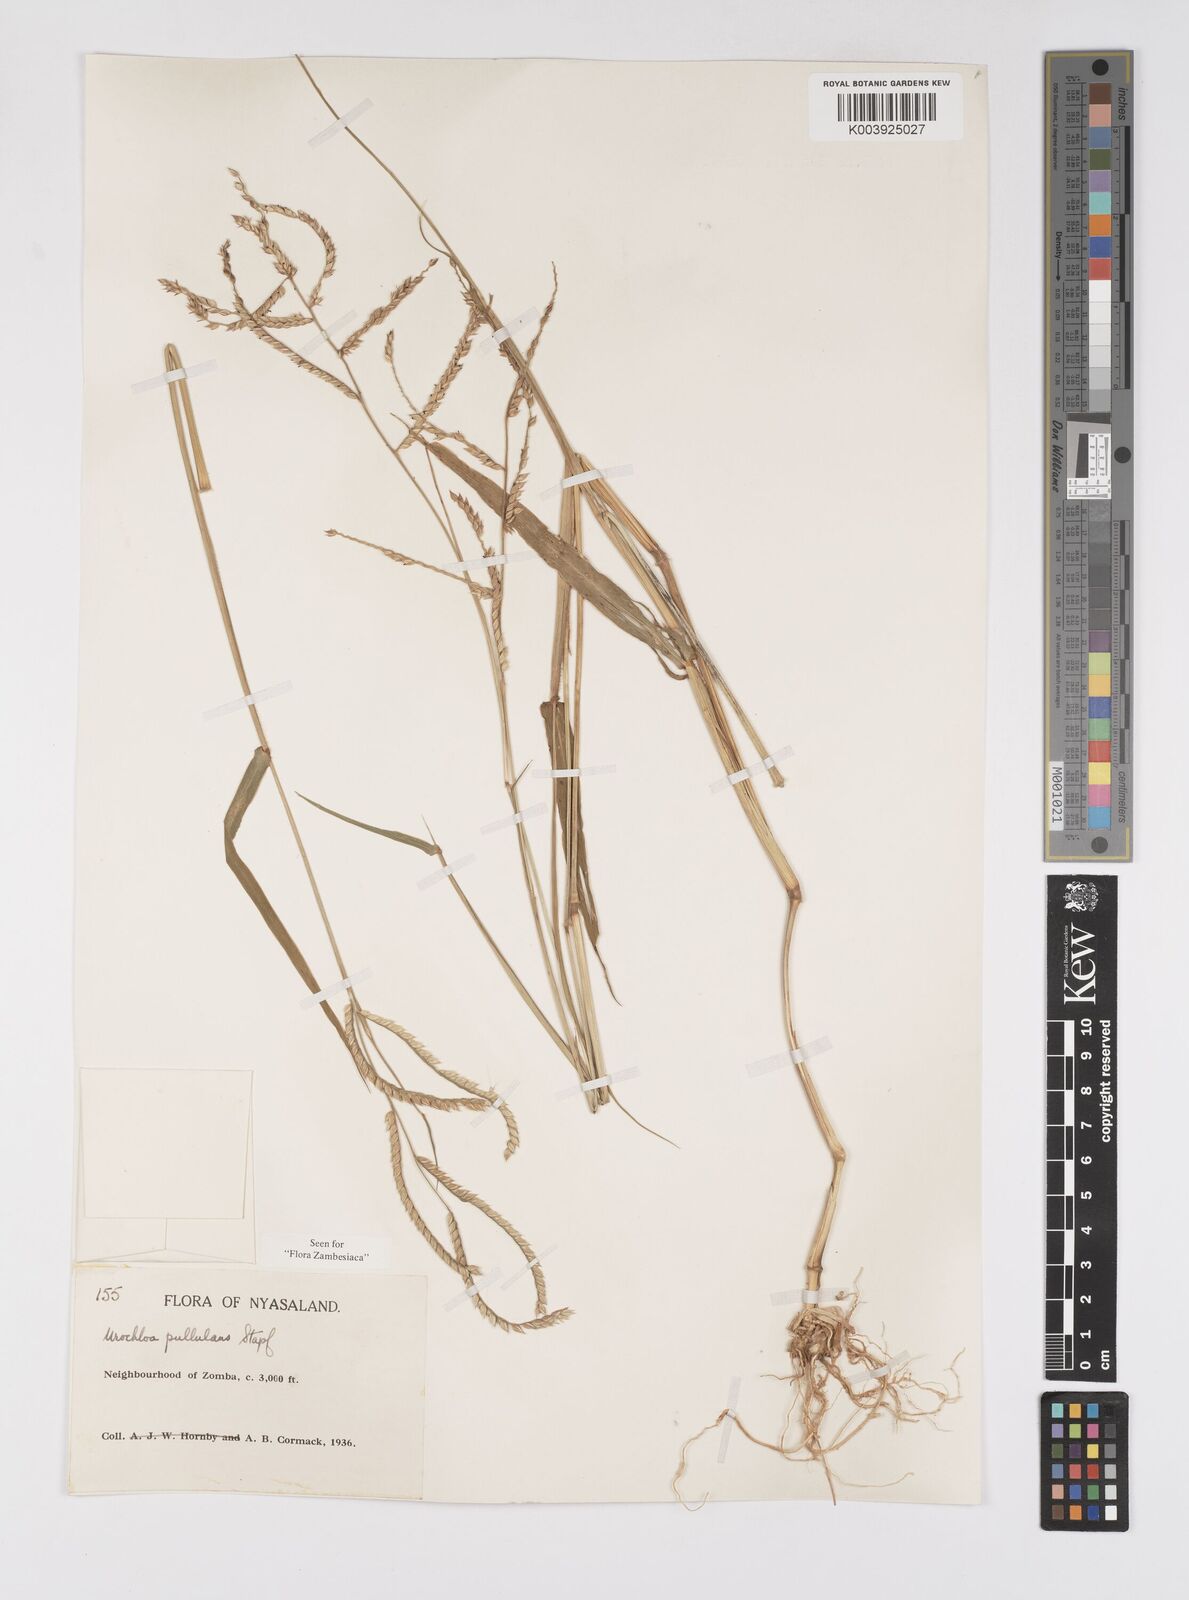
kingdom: Plantae
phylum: Tracheophyta
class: Liliopsida
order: Poales
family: Poaceae
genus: Urochloa
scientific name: Urochloa trichopus
